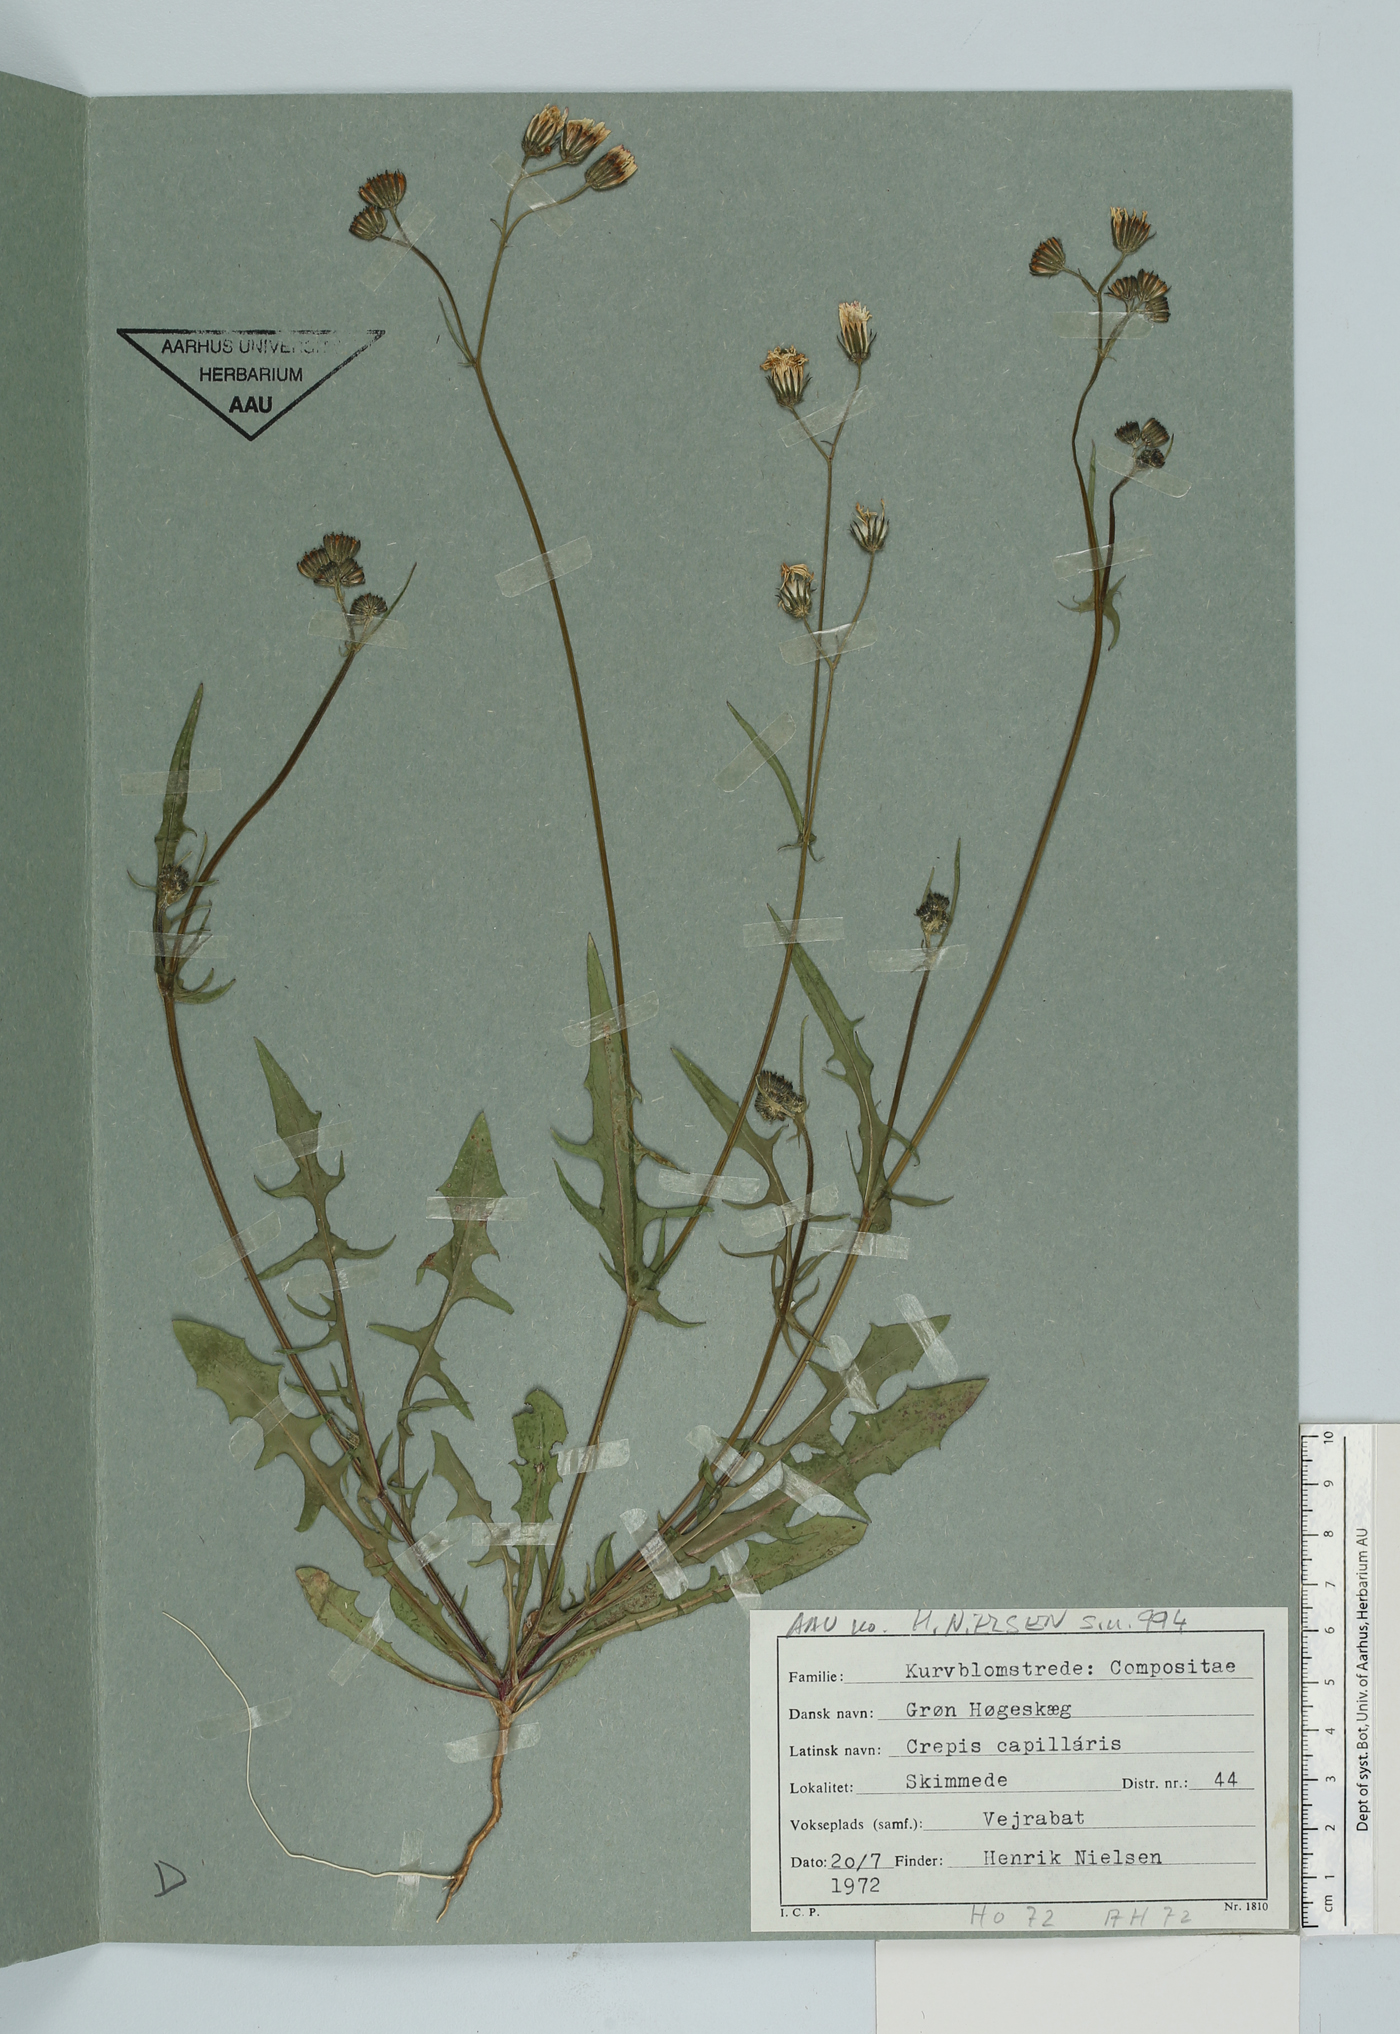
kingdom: Plantae
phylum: Tracheophyta
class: Magnoliopsida
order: Asterales
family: Asteraceae
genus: Crepis
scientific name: Crepis capillaris
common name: Smooth hawksbeard
